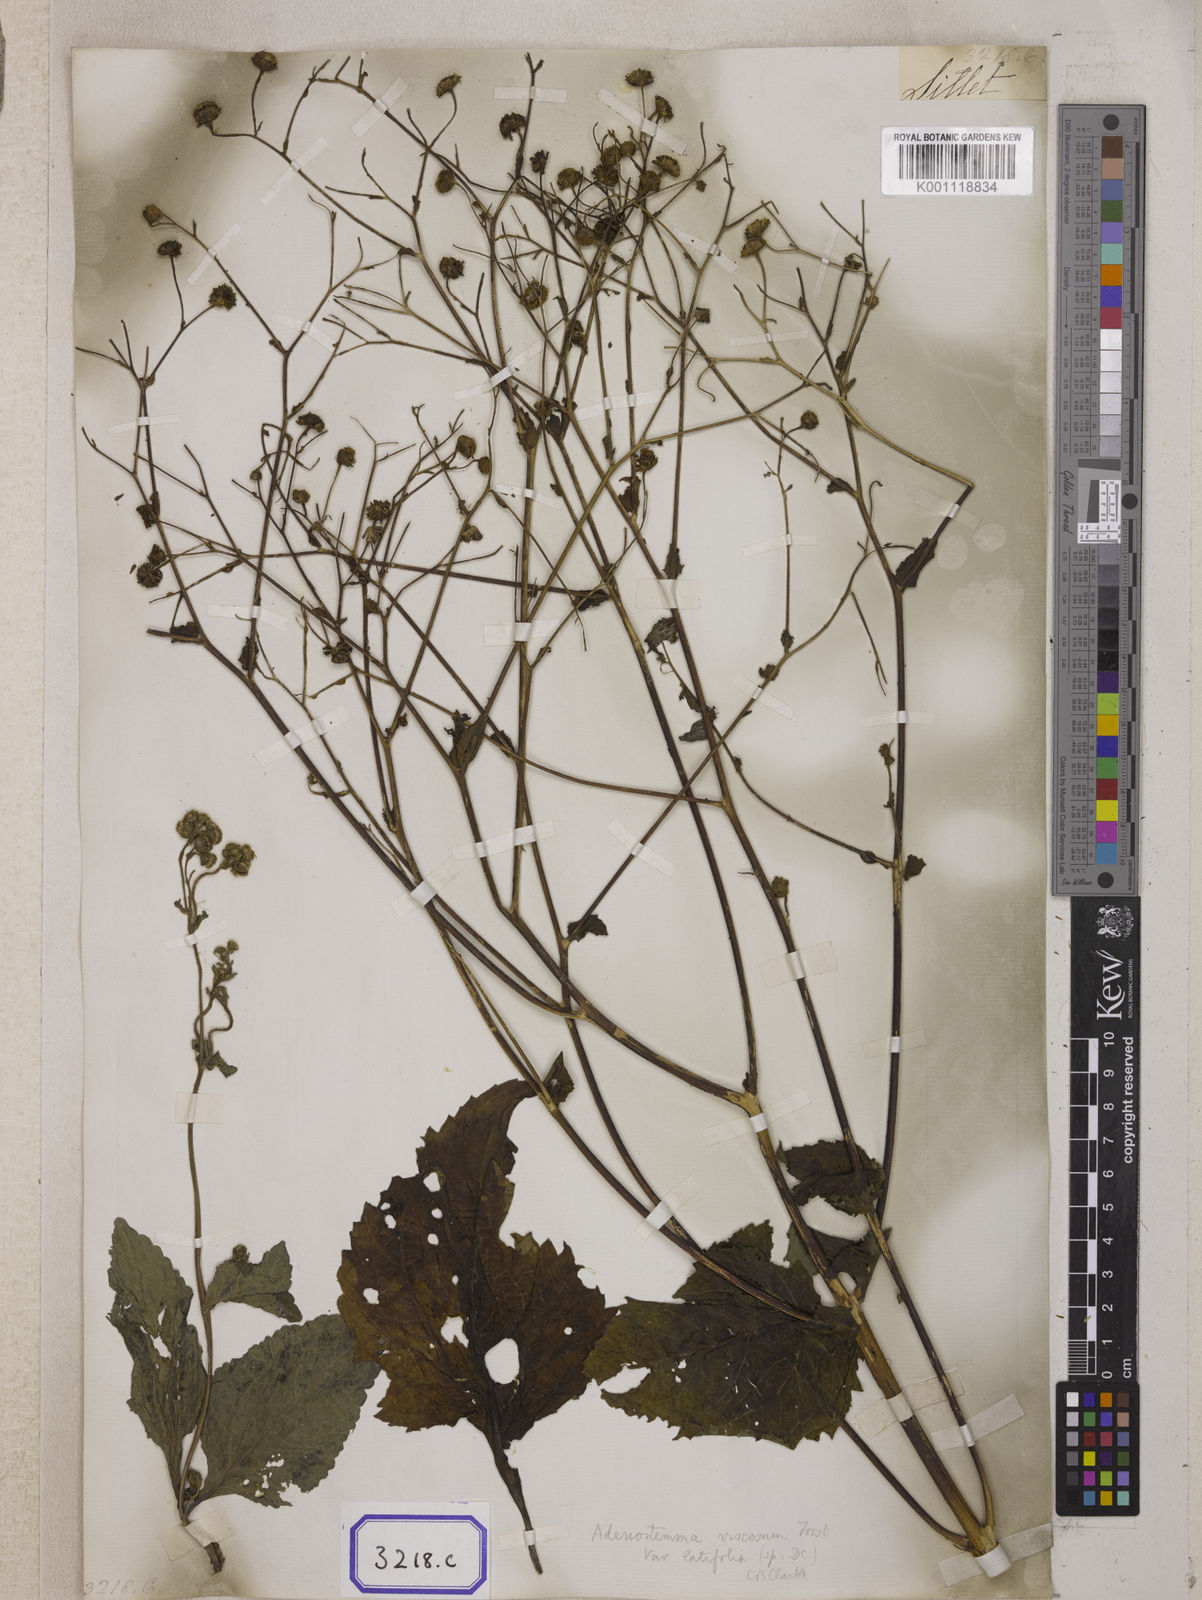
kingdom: Plantae
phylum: Tracheophyta
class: Magnoliopsida
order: Asterales
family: Asteraceae
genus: Adenostemma
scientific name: Adenostemma viscosum
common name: Dungweed
